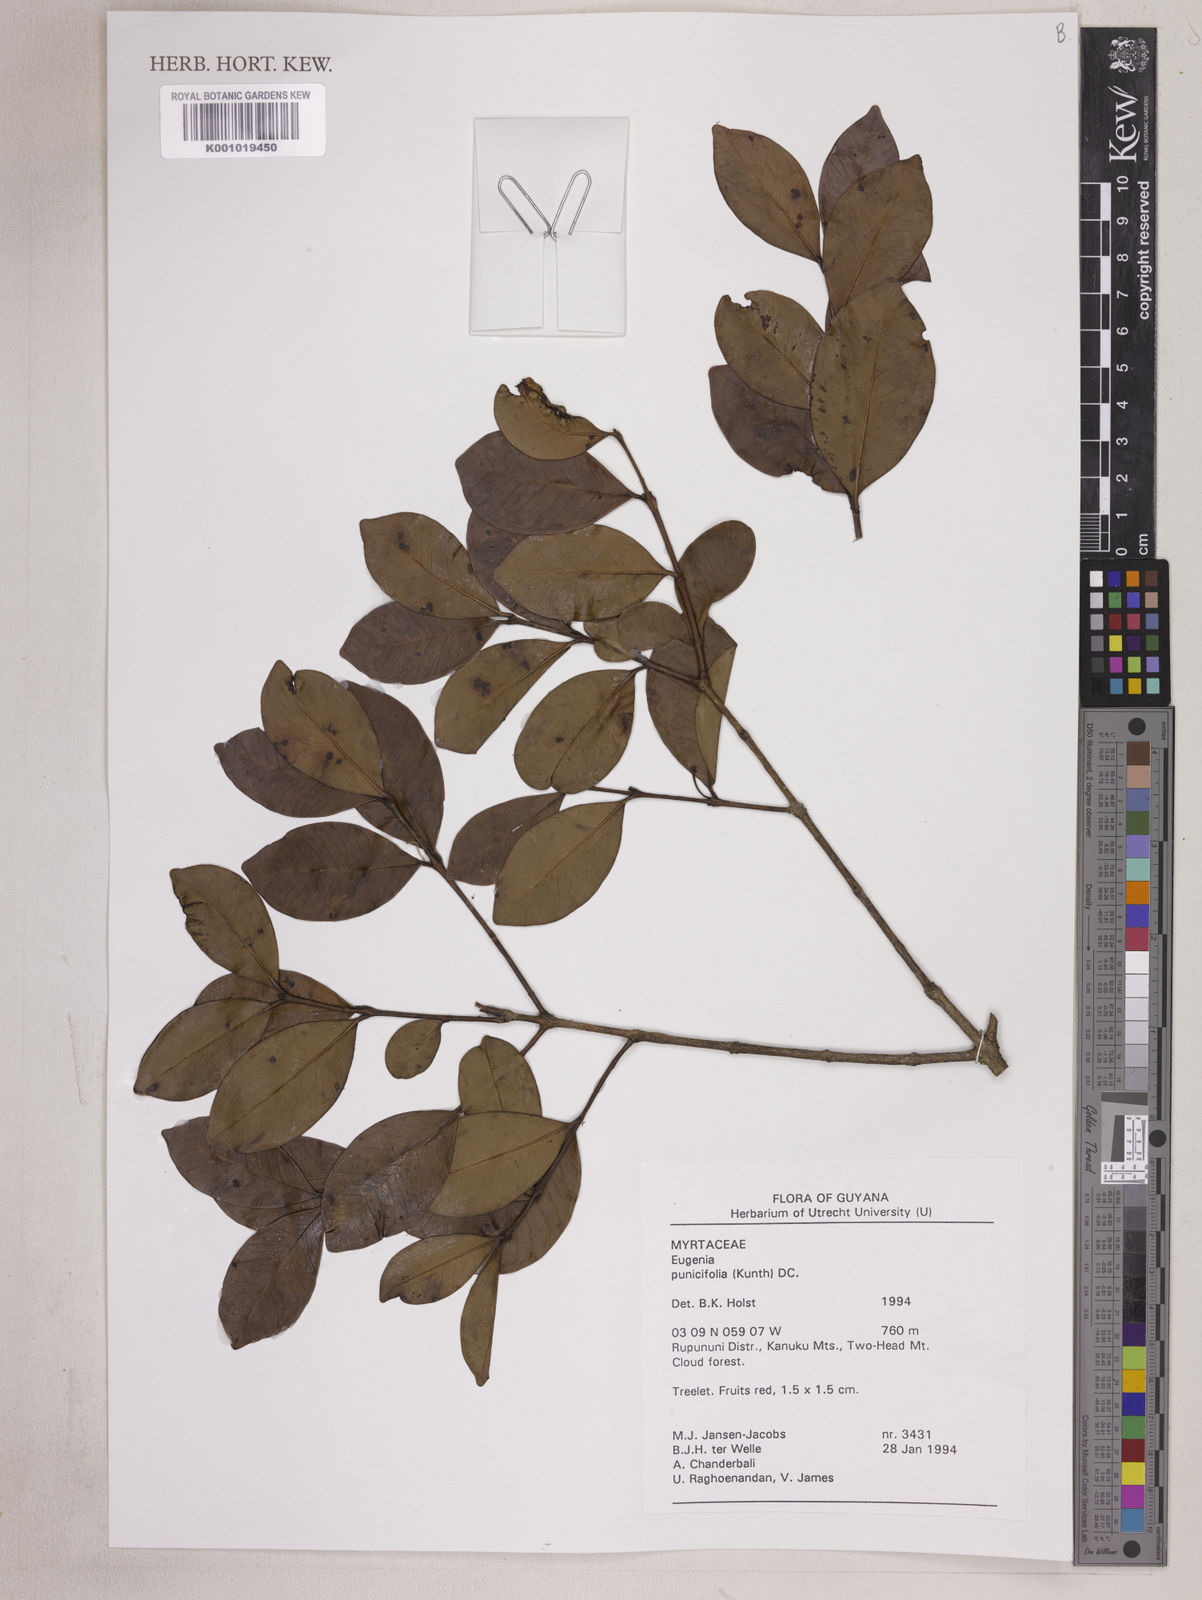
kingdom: Plantae
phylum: Tracheophyta
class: Magnoliopsida
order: Myrtales
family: Myrtaceae
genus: Eugenia
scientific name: Eugenia punicifolia
